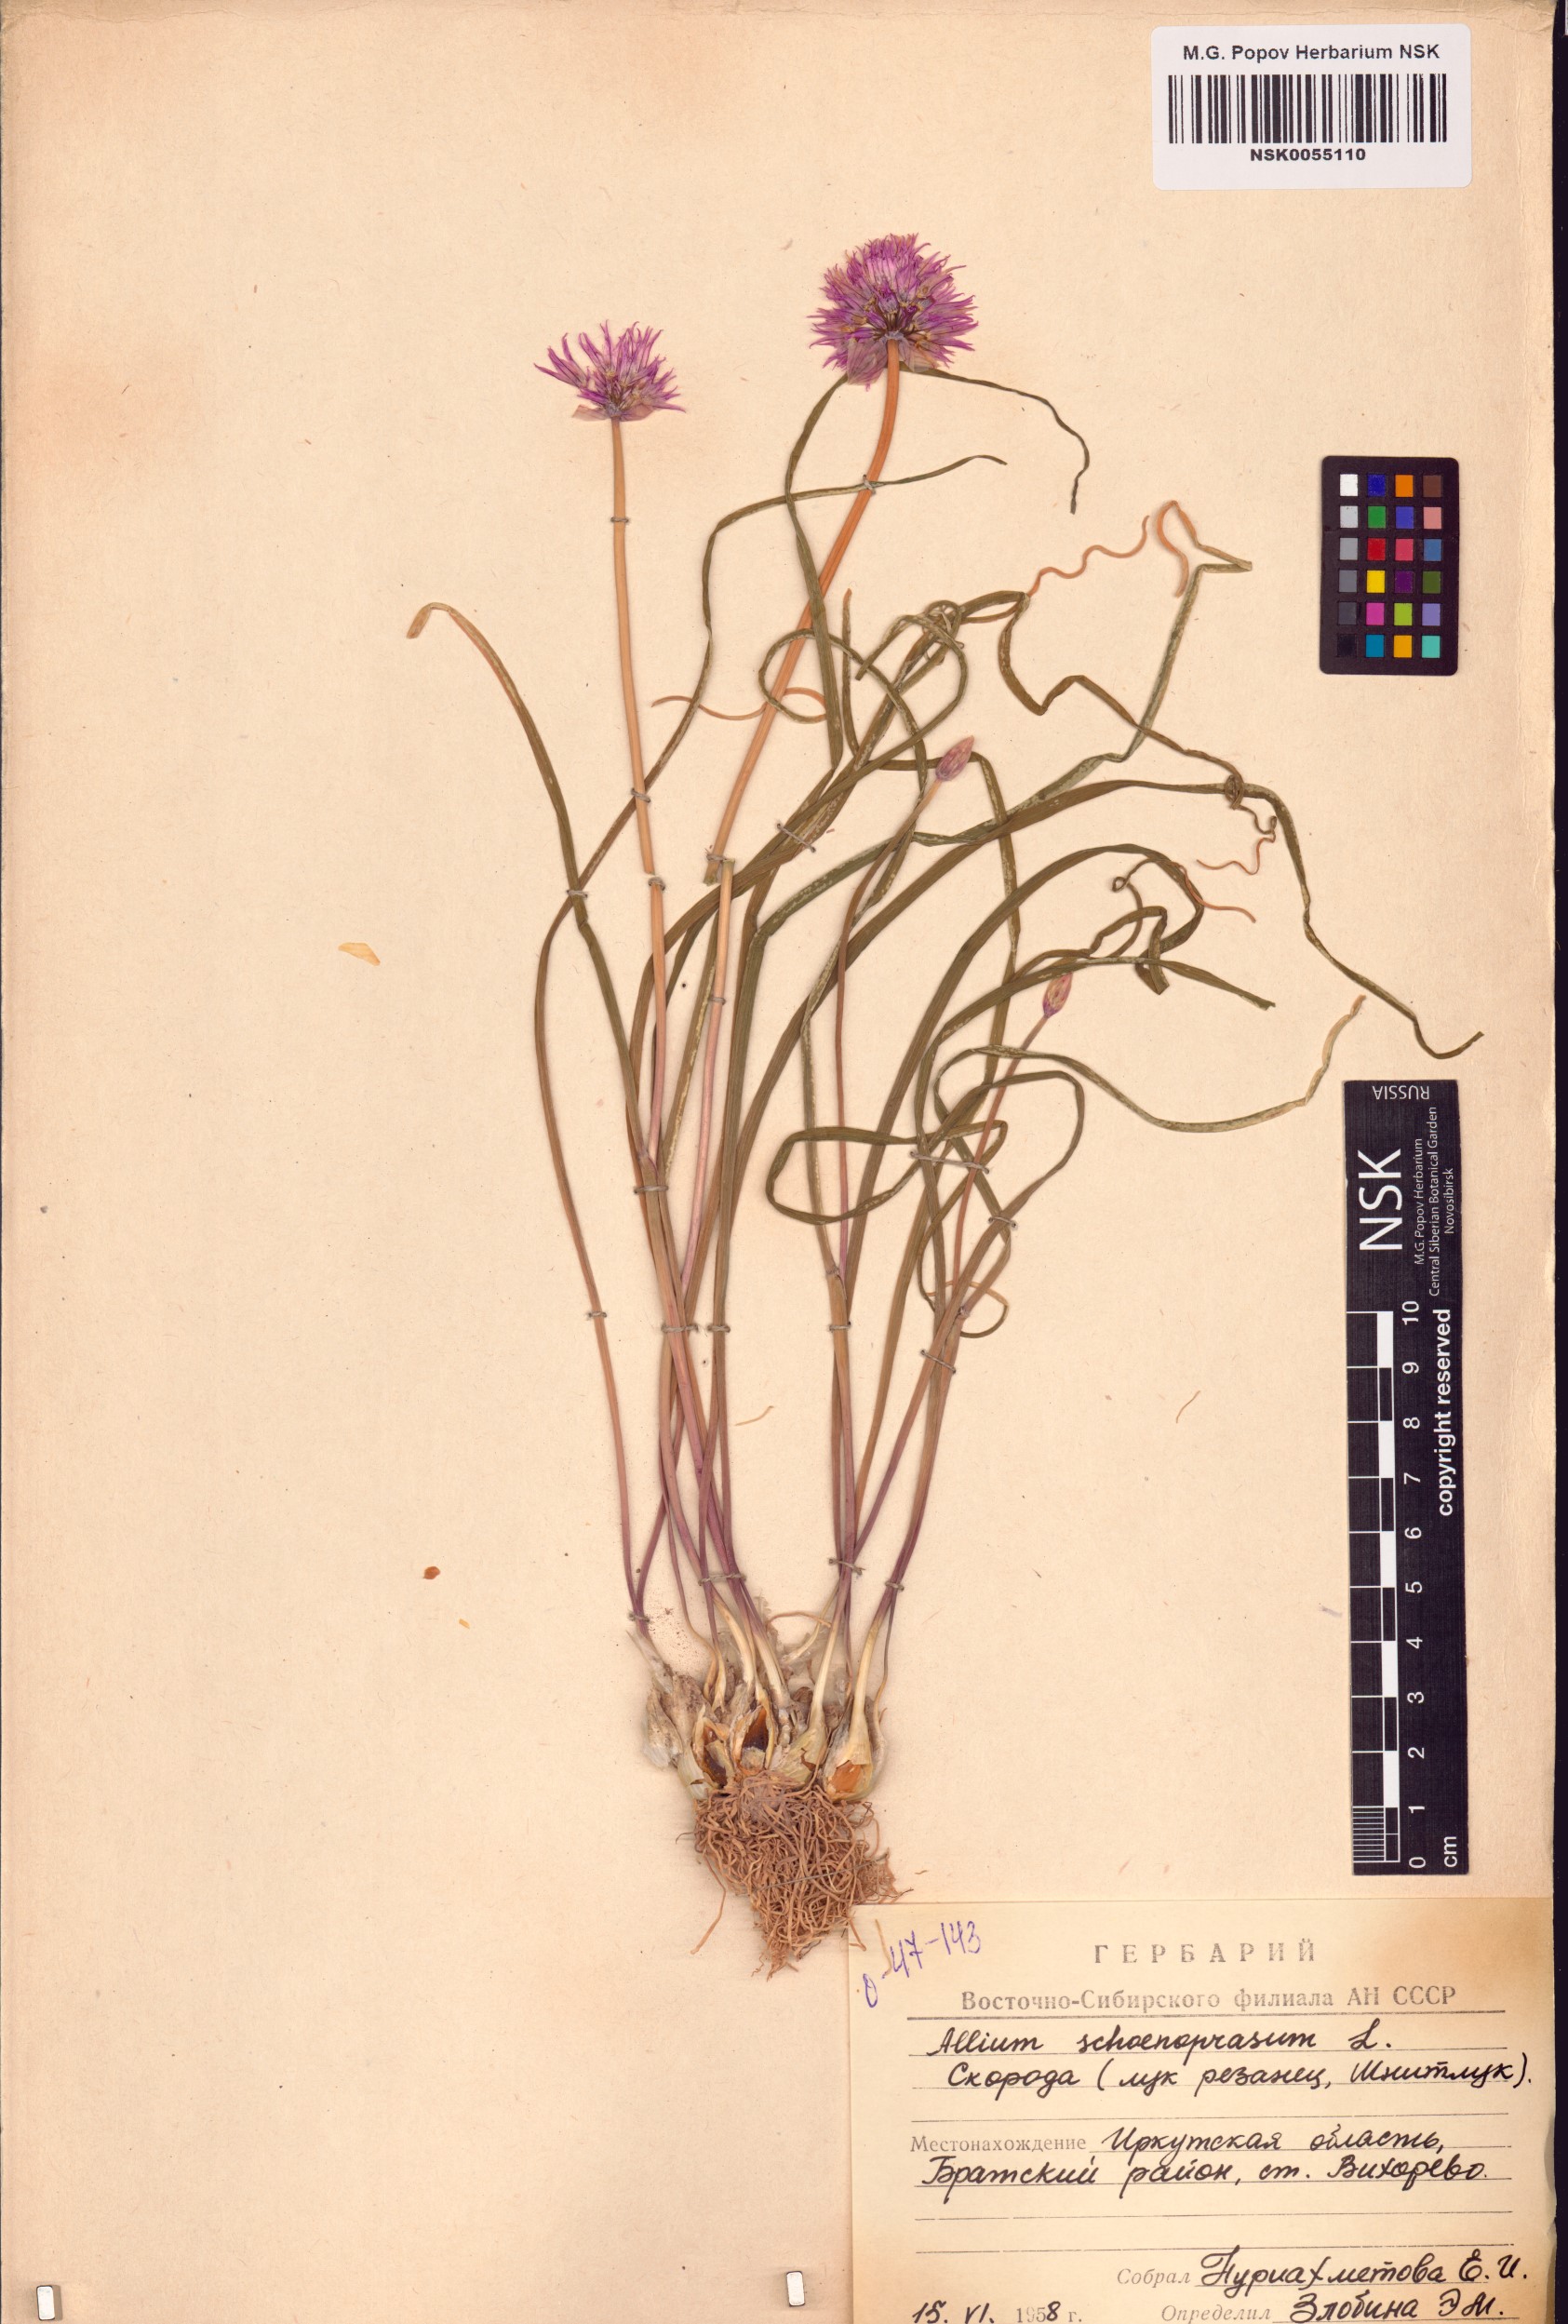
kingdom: Plantae
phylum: Tracheophyta
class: Liliopsida
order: Asparagales
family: Amaryllidaceae
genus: Allium
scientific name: Allium schoenoprasum
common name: Chives
